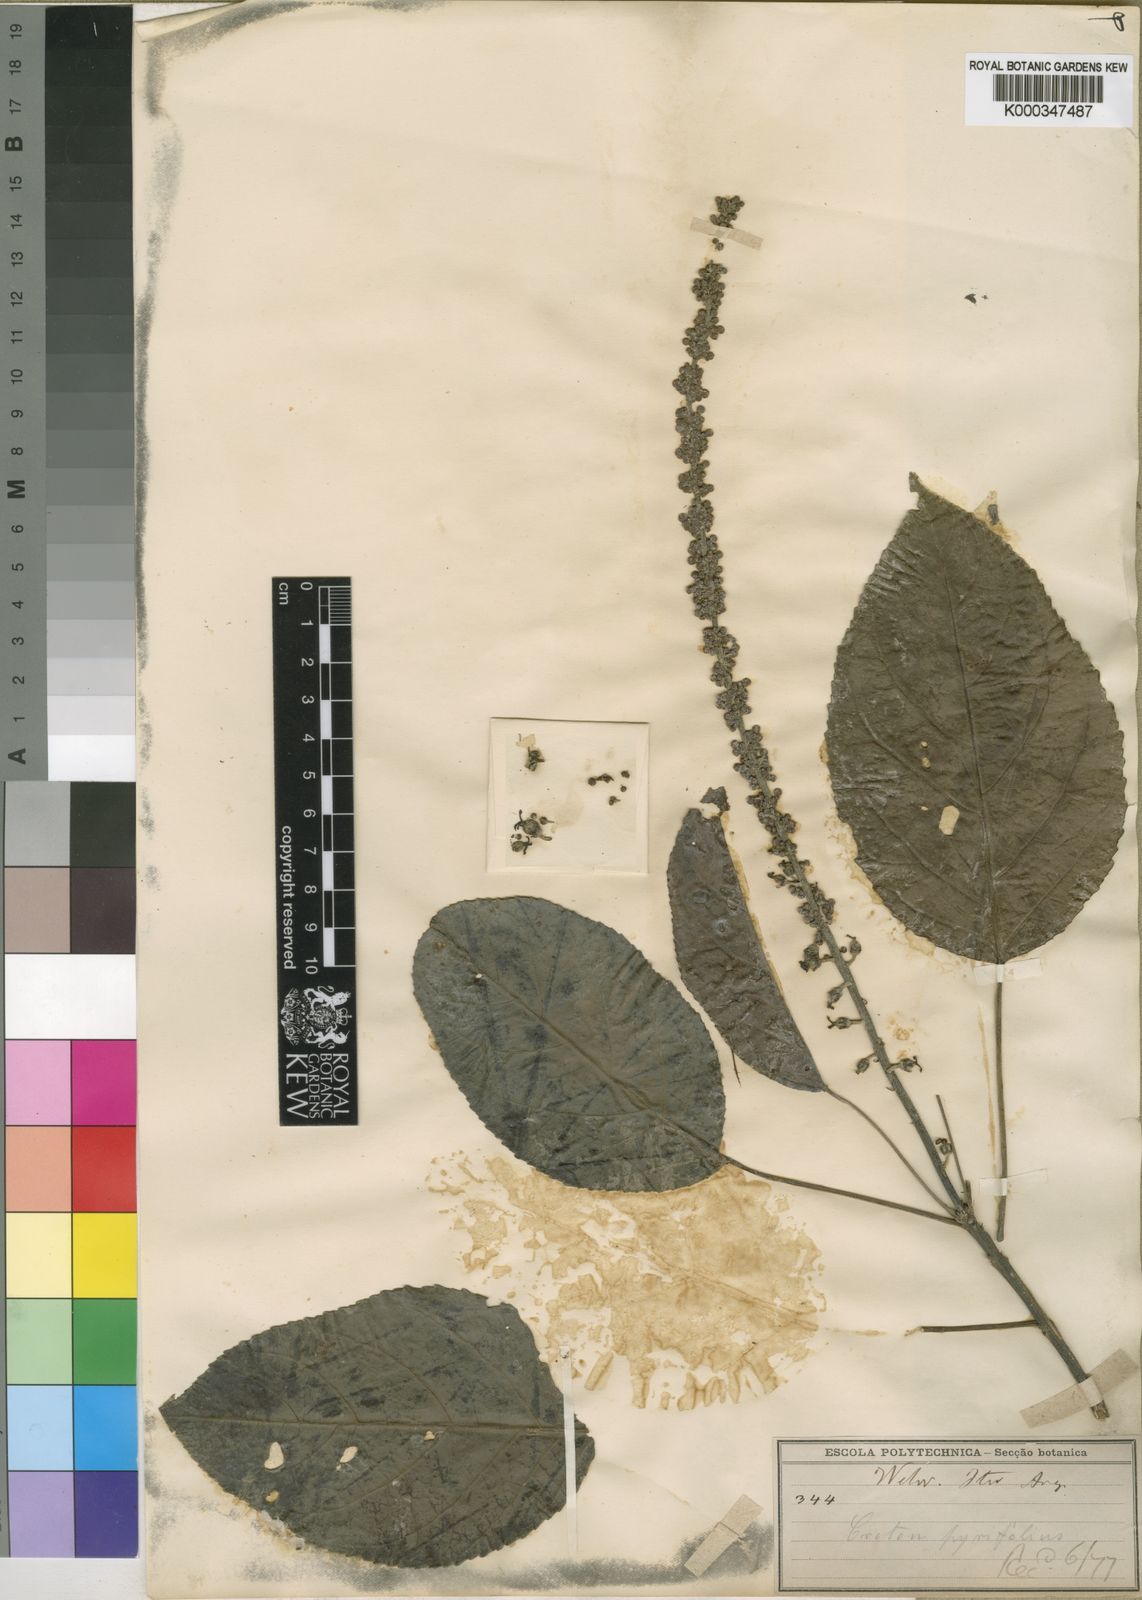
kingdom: Plantae
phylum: Tracheophyta
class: Magnoliopsida
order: Malpighiales
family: Euphorbiaceae
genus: Croton
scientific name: Croton
